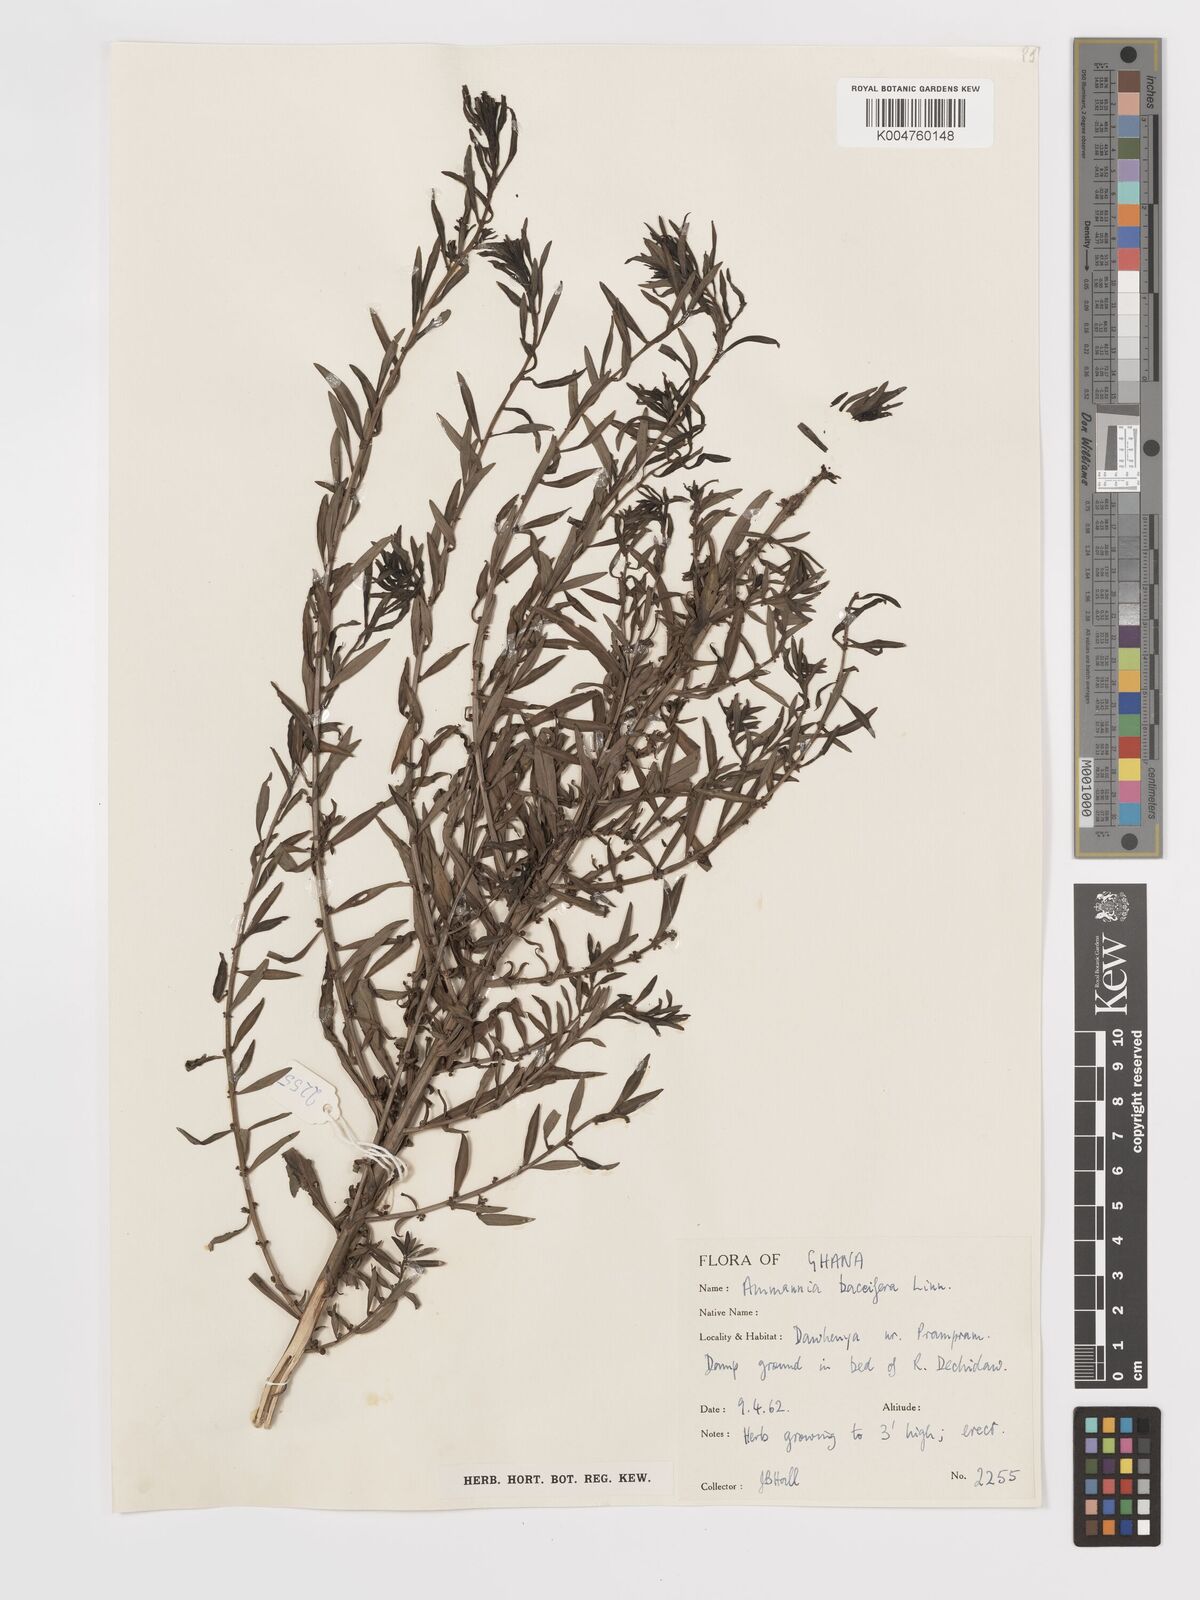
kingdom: Plantae
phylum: Tracheophyta
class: Magnoliopsida
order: Myrtales
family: Lythraceae
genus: Ammannia
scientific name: Ammannia
